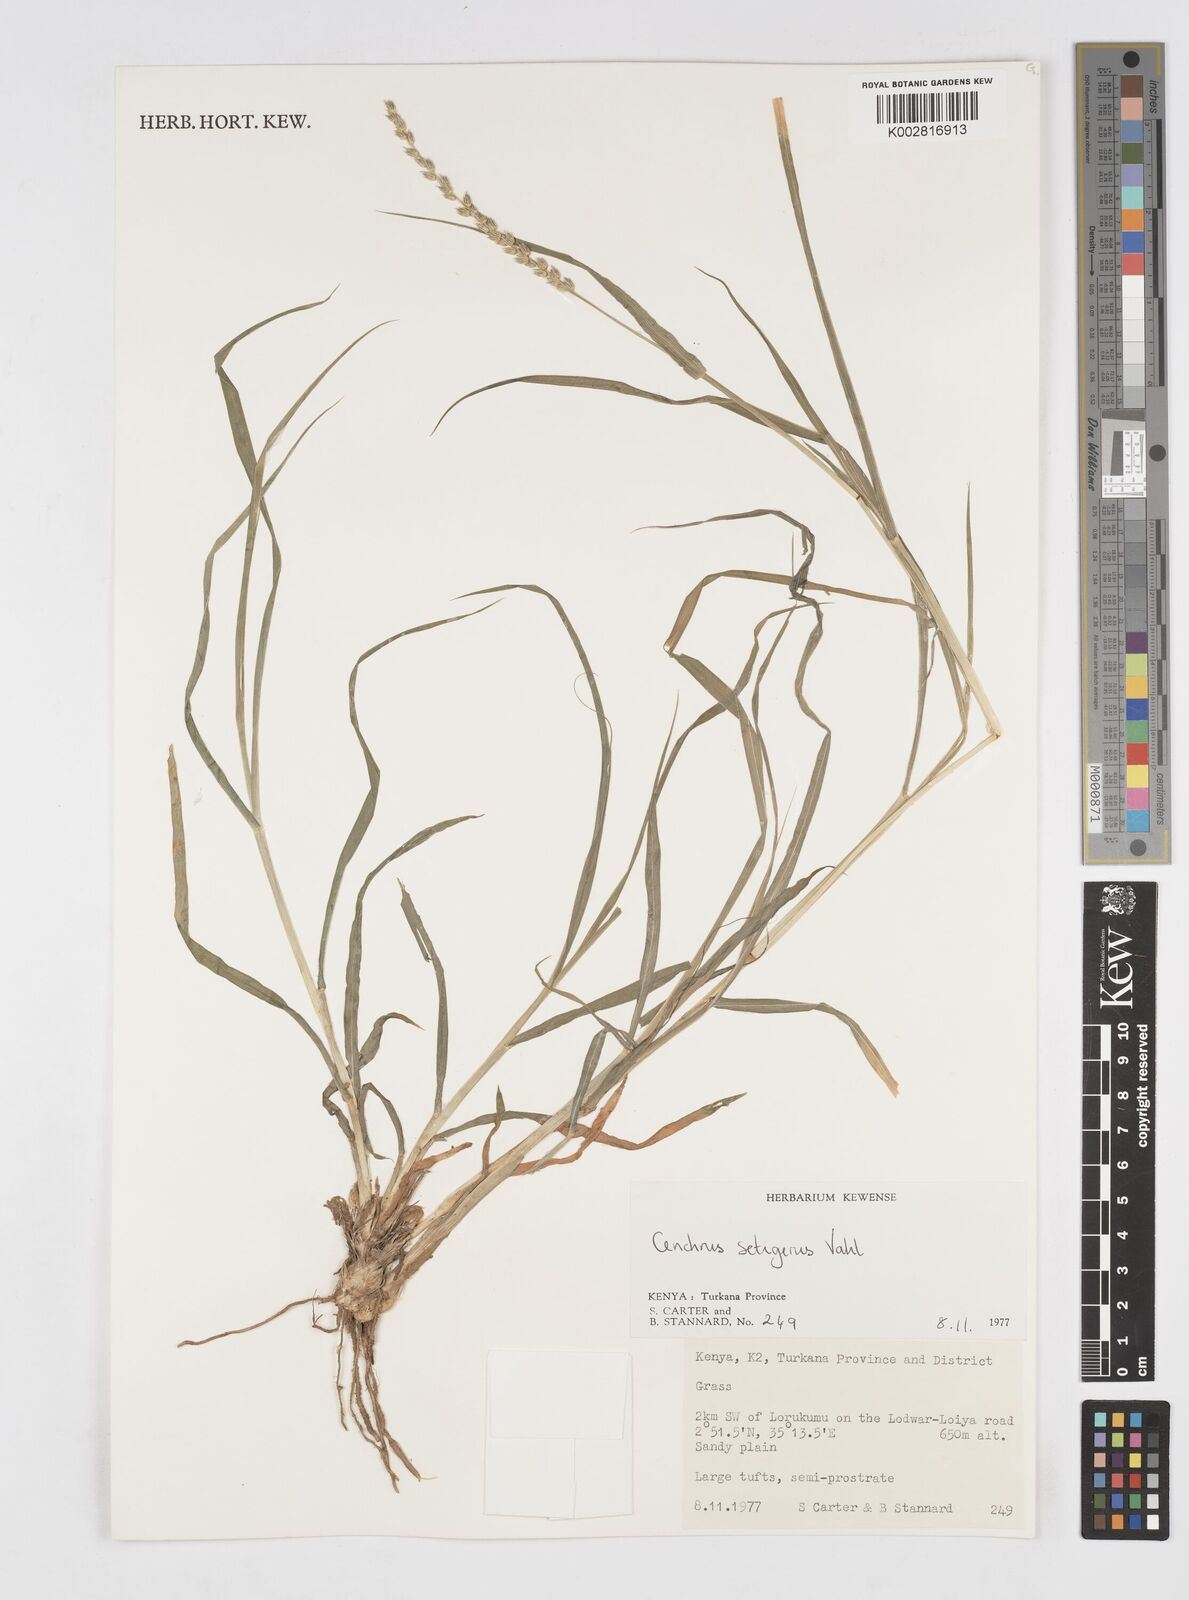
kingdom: Plantae
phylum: Tracheophyta
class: Liliopsida
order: Poales
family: Poaceae
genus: Cenchrus
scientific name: Cenchrus setigerus
